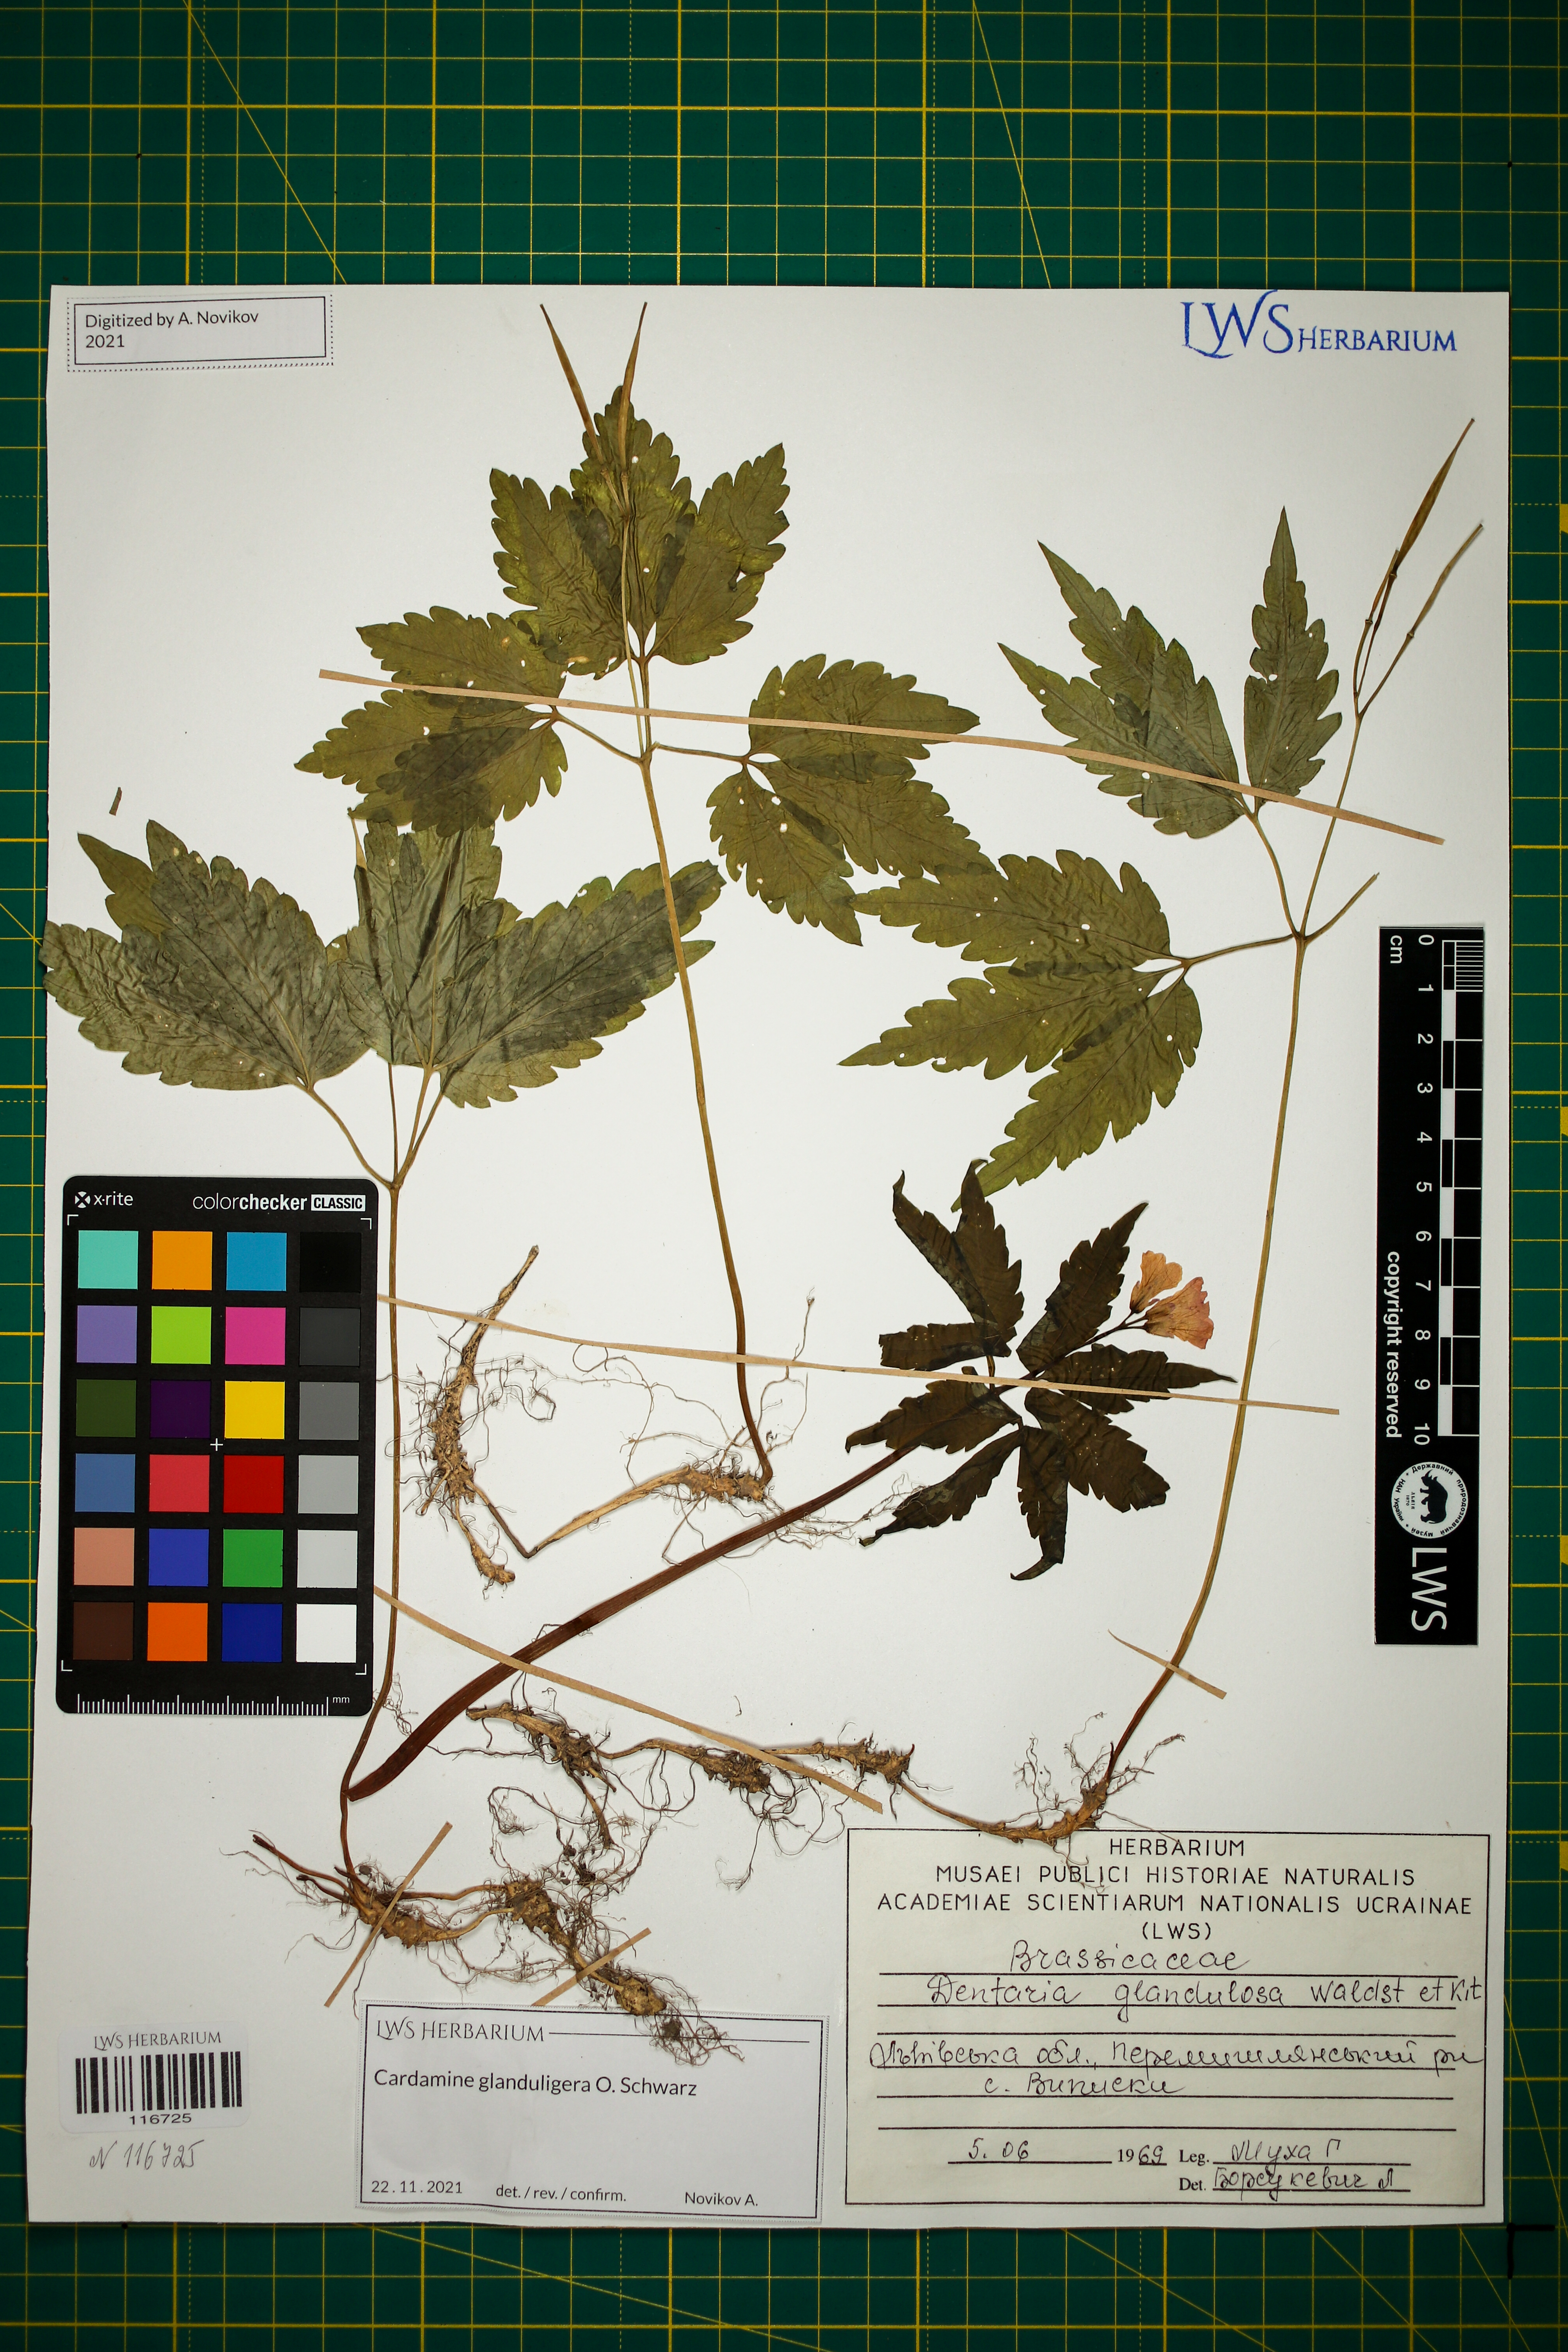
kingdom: Plantae
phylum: Tracheophyta
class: Magnoliopsida
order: Brassicales
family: Brassicaceae
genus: Cardamine
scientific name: Cardamine glanduligera
